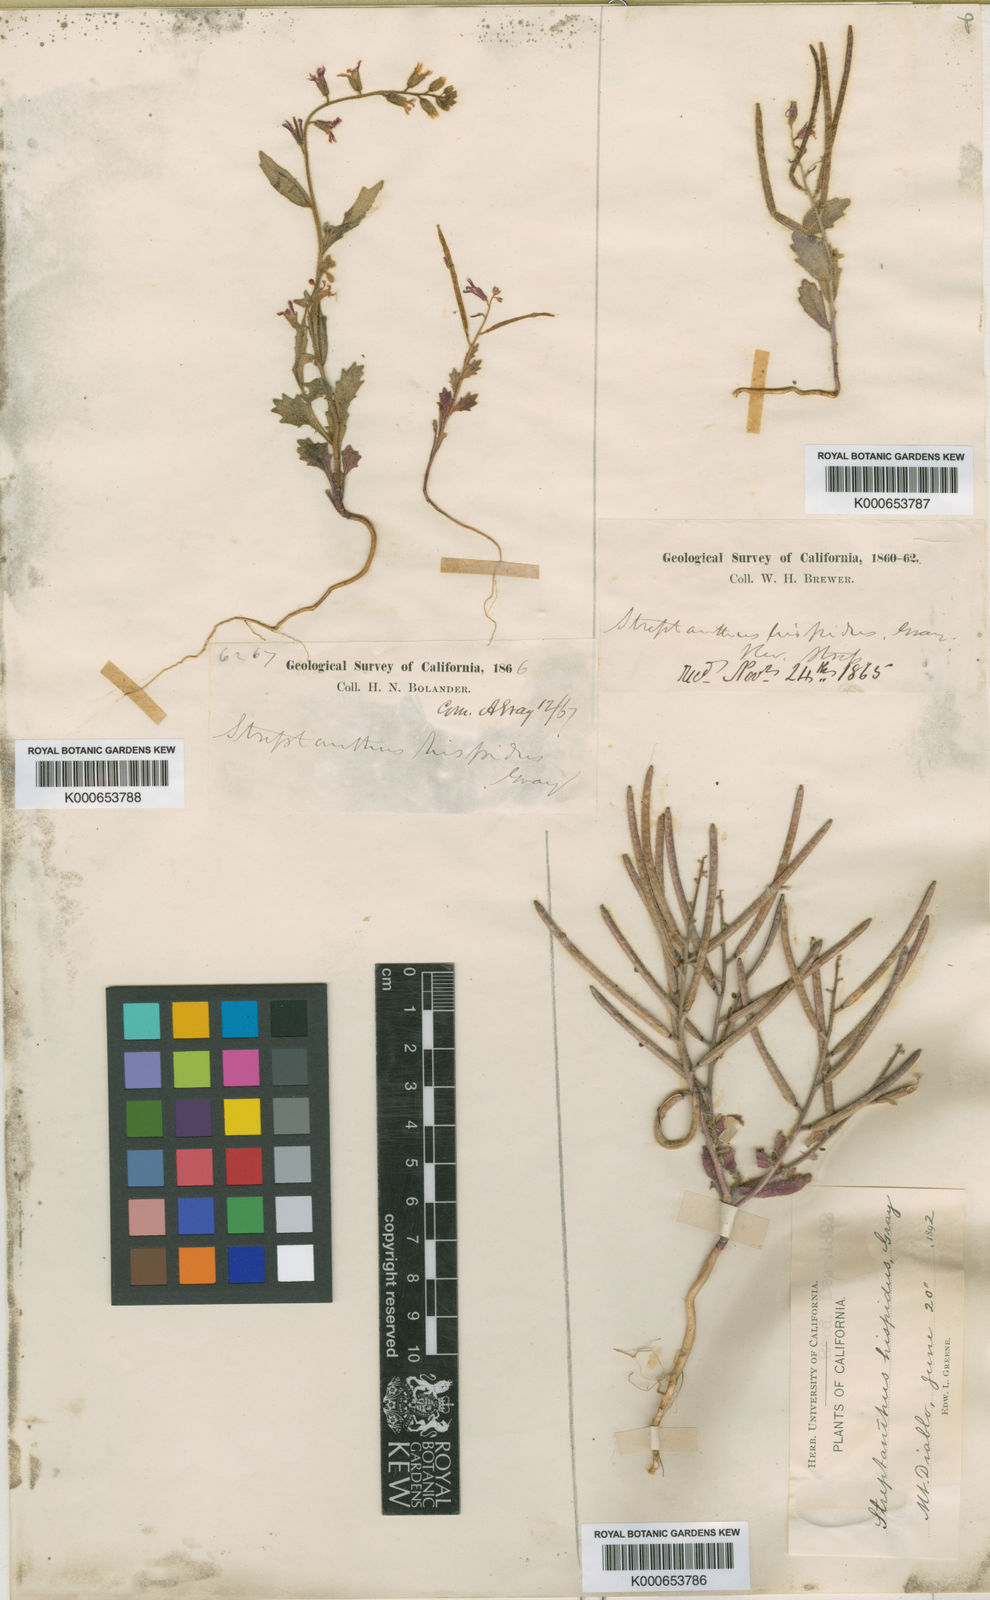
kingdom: Plantae
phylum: Tracheophyta
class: Magnoliopsida
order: Brassicales
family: Brassicaceae
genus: Streptanthus
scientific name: Streptanthus hispidus
